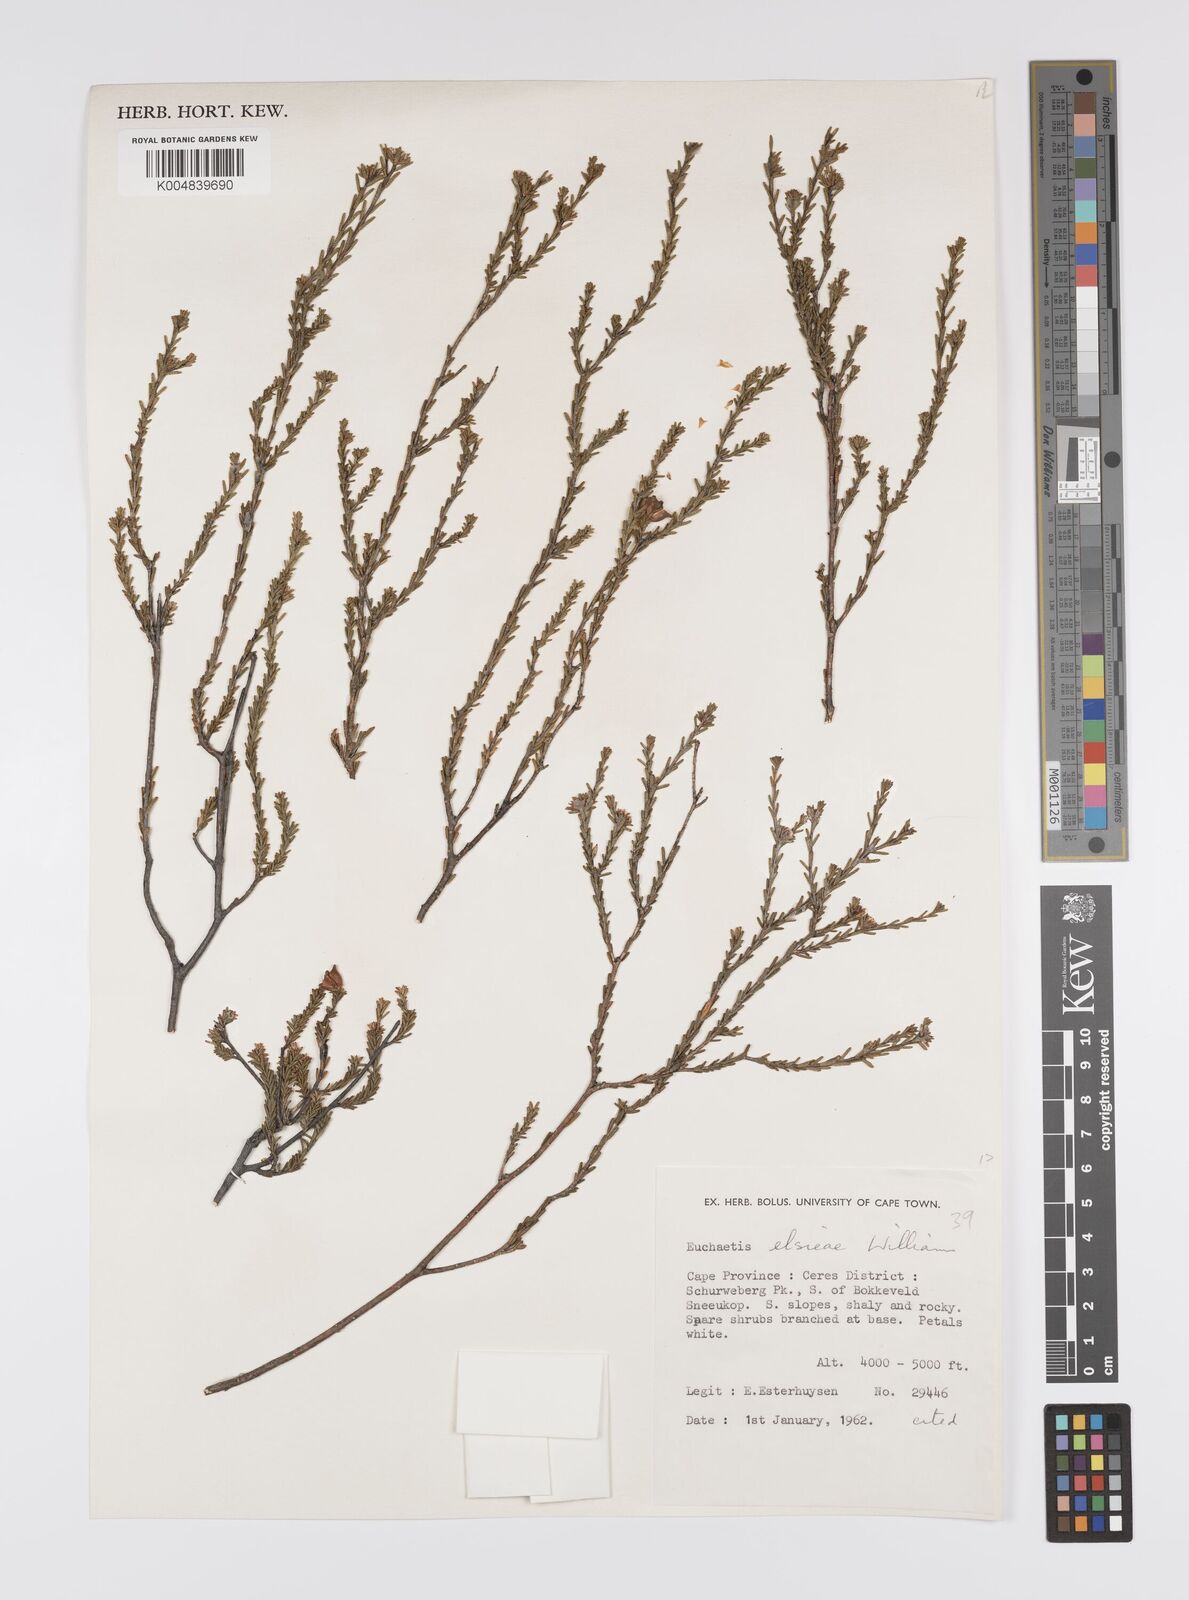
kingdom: Plantae
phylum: Tracheophyta
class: Magnoliopsida
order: Sapindales
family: Rutaceae
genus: Euchaetis
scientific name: Euchaetis elsieae
